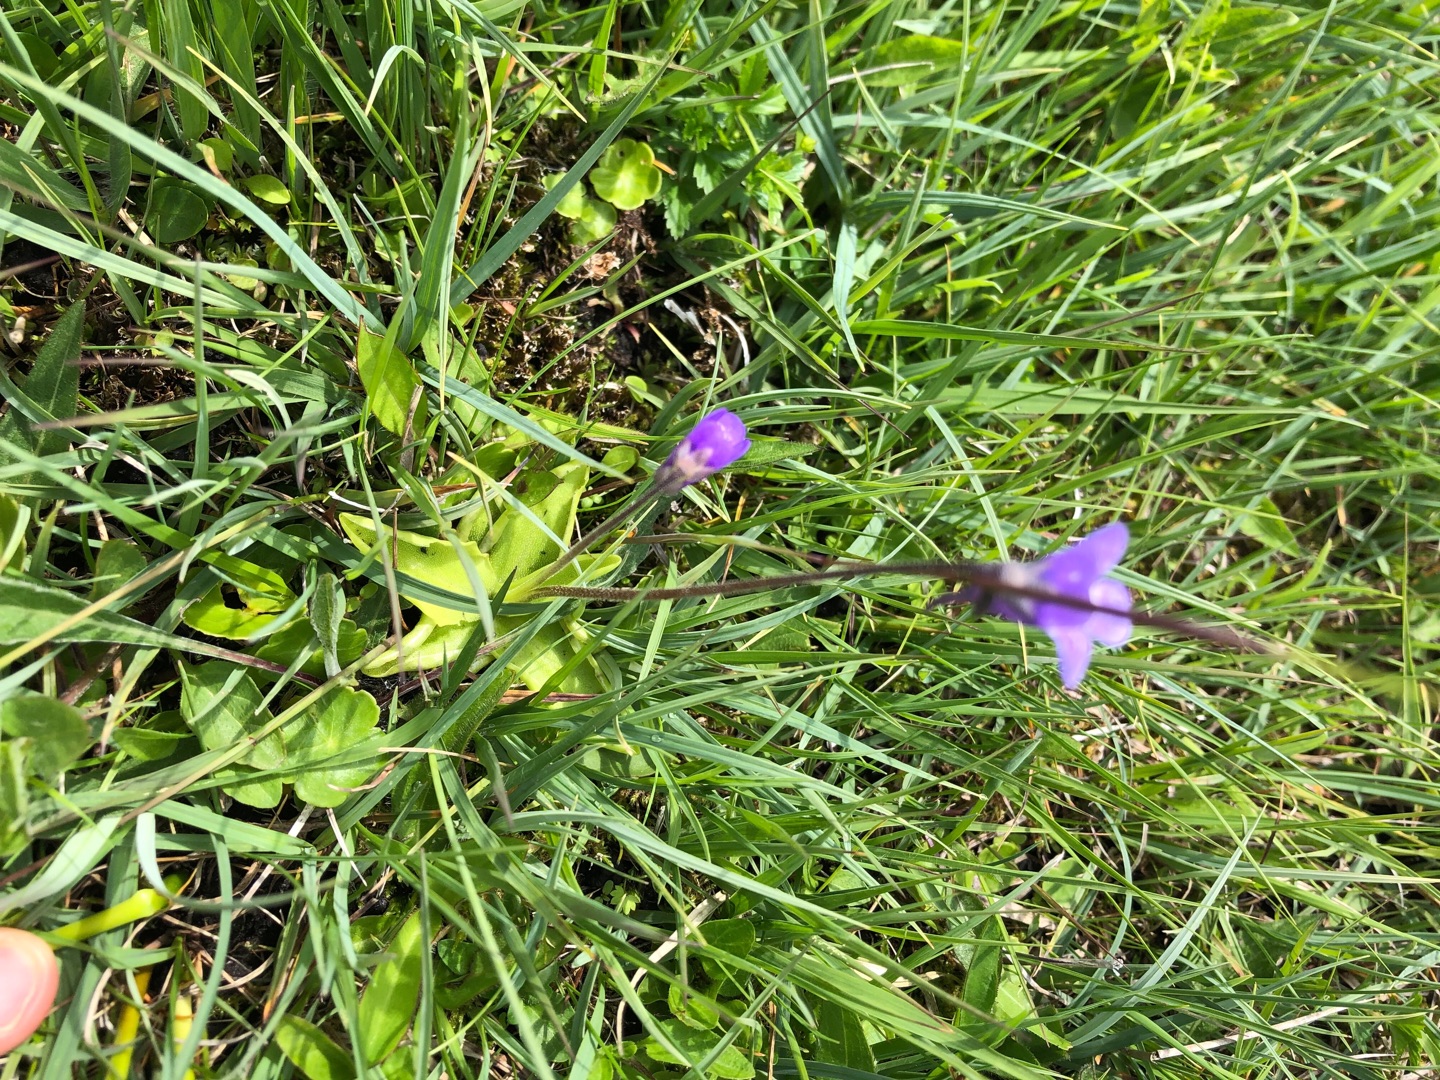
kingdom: Plantae
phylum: Tracheophyta
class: Magnoliopsida
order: Lamiales
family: Lentibulariaceae
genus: Pinguicula
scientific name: Pinguicula vulgaris
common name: Vibefedt
